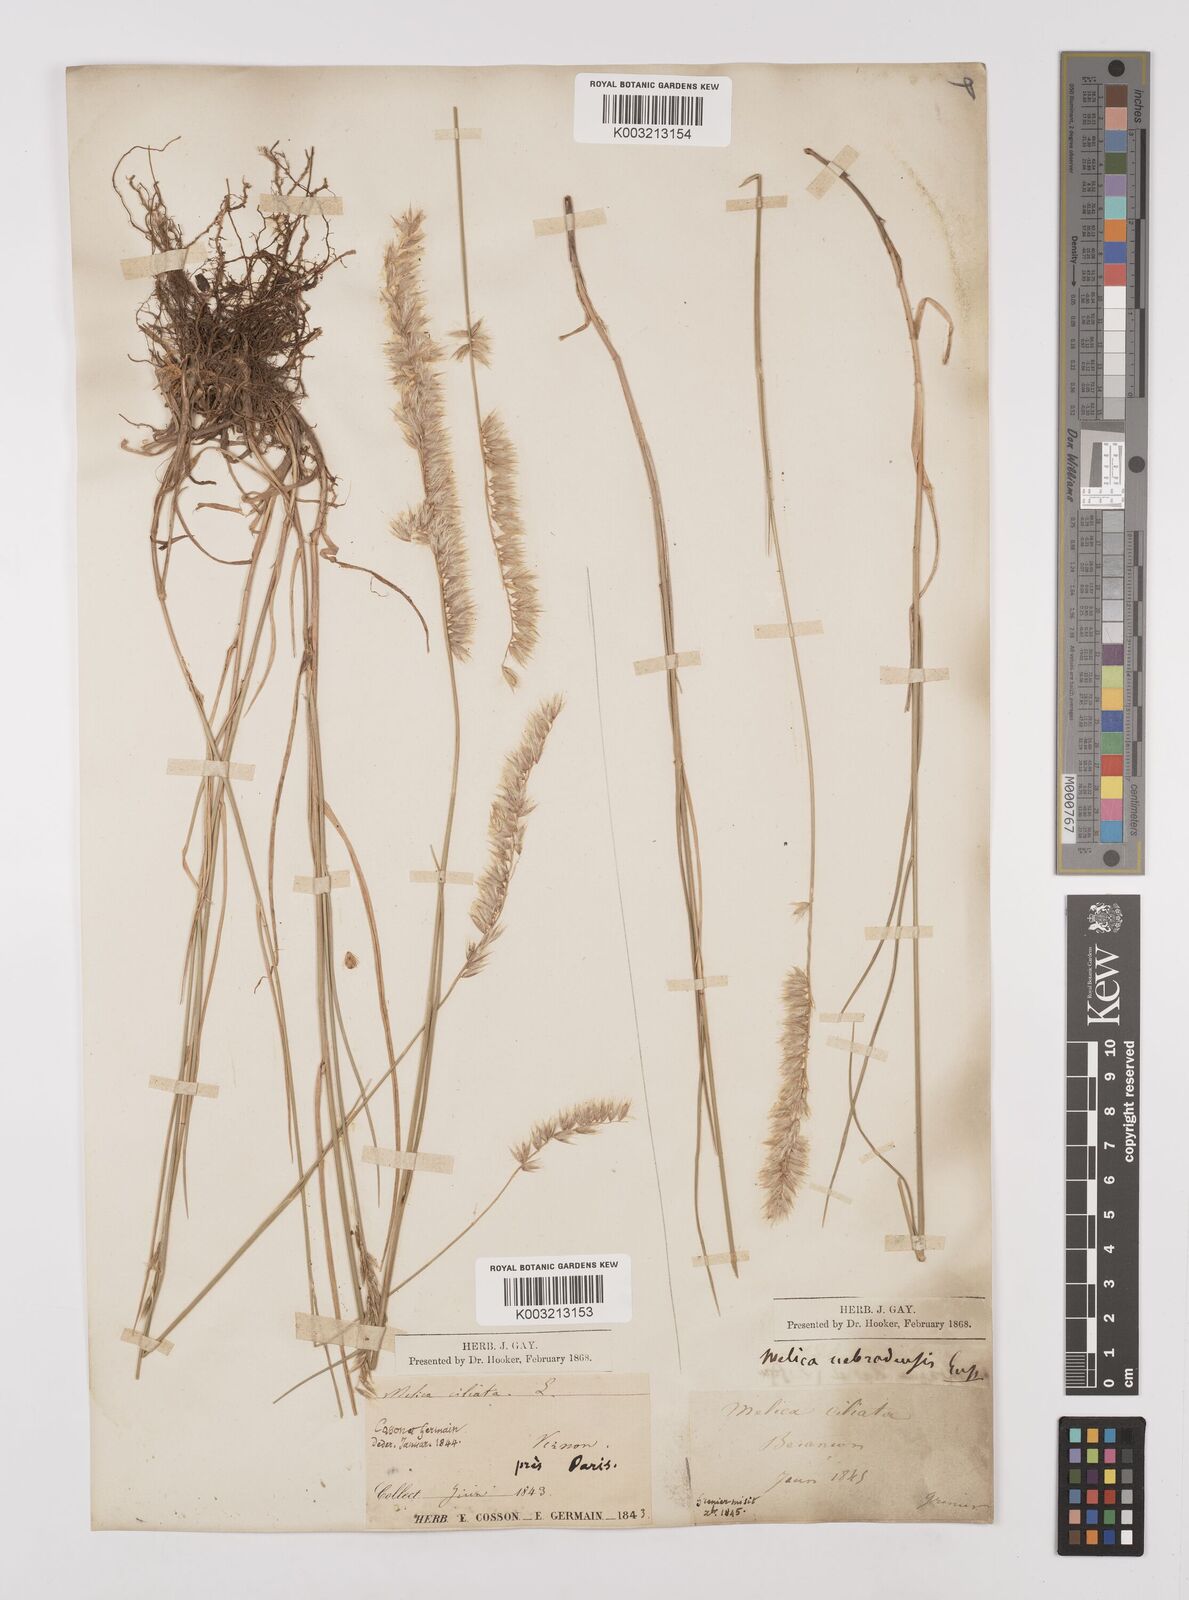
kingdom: Plantae
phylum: Tracheophyta
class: Liliopsida
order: Poales
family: Poaceae
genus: Melica
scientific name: Melica ciliata
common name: Hairy melicgrass
